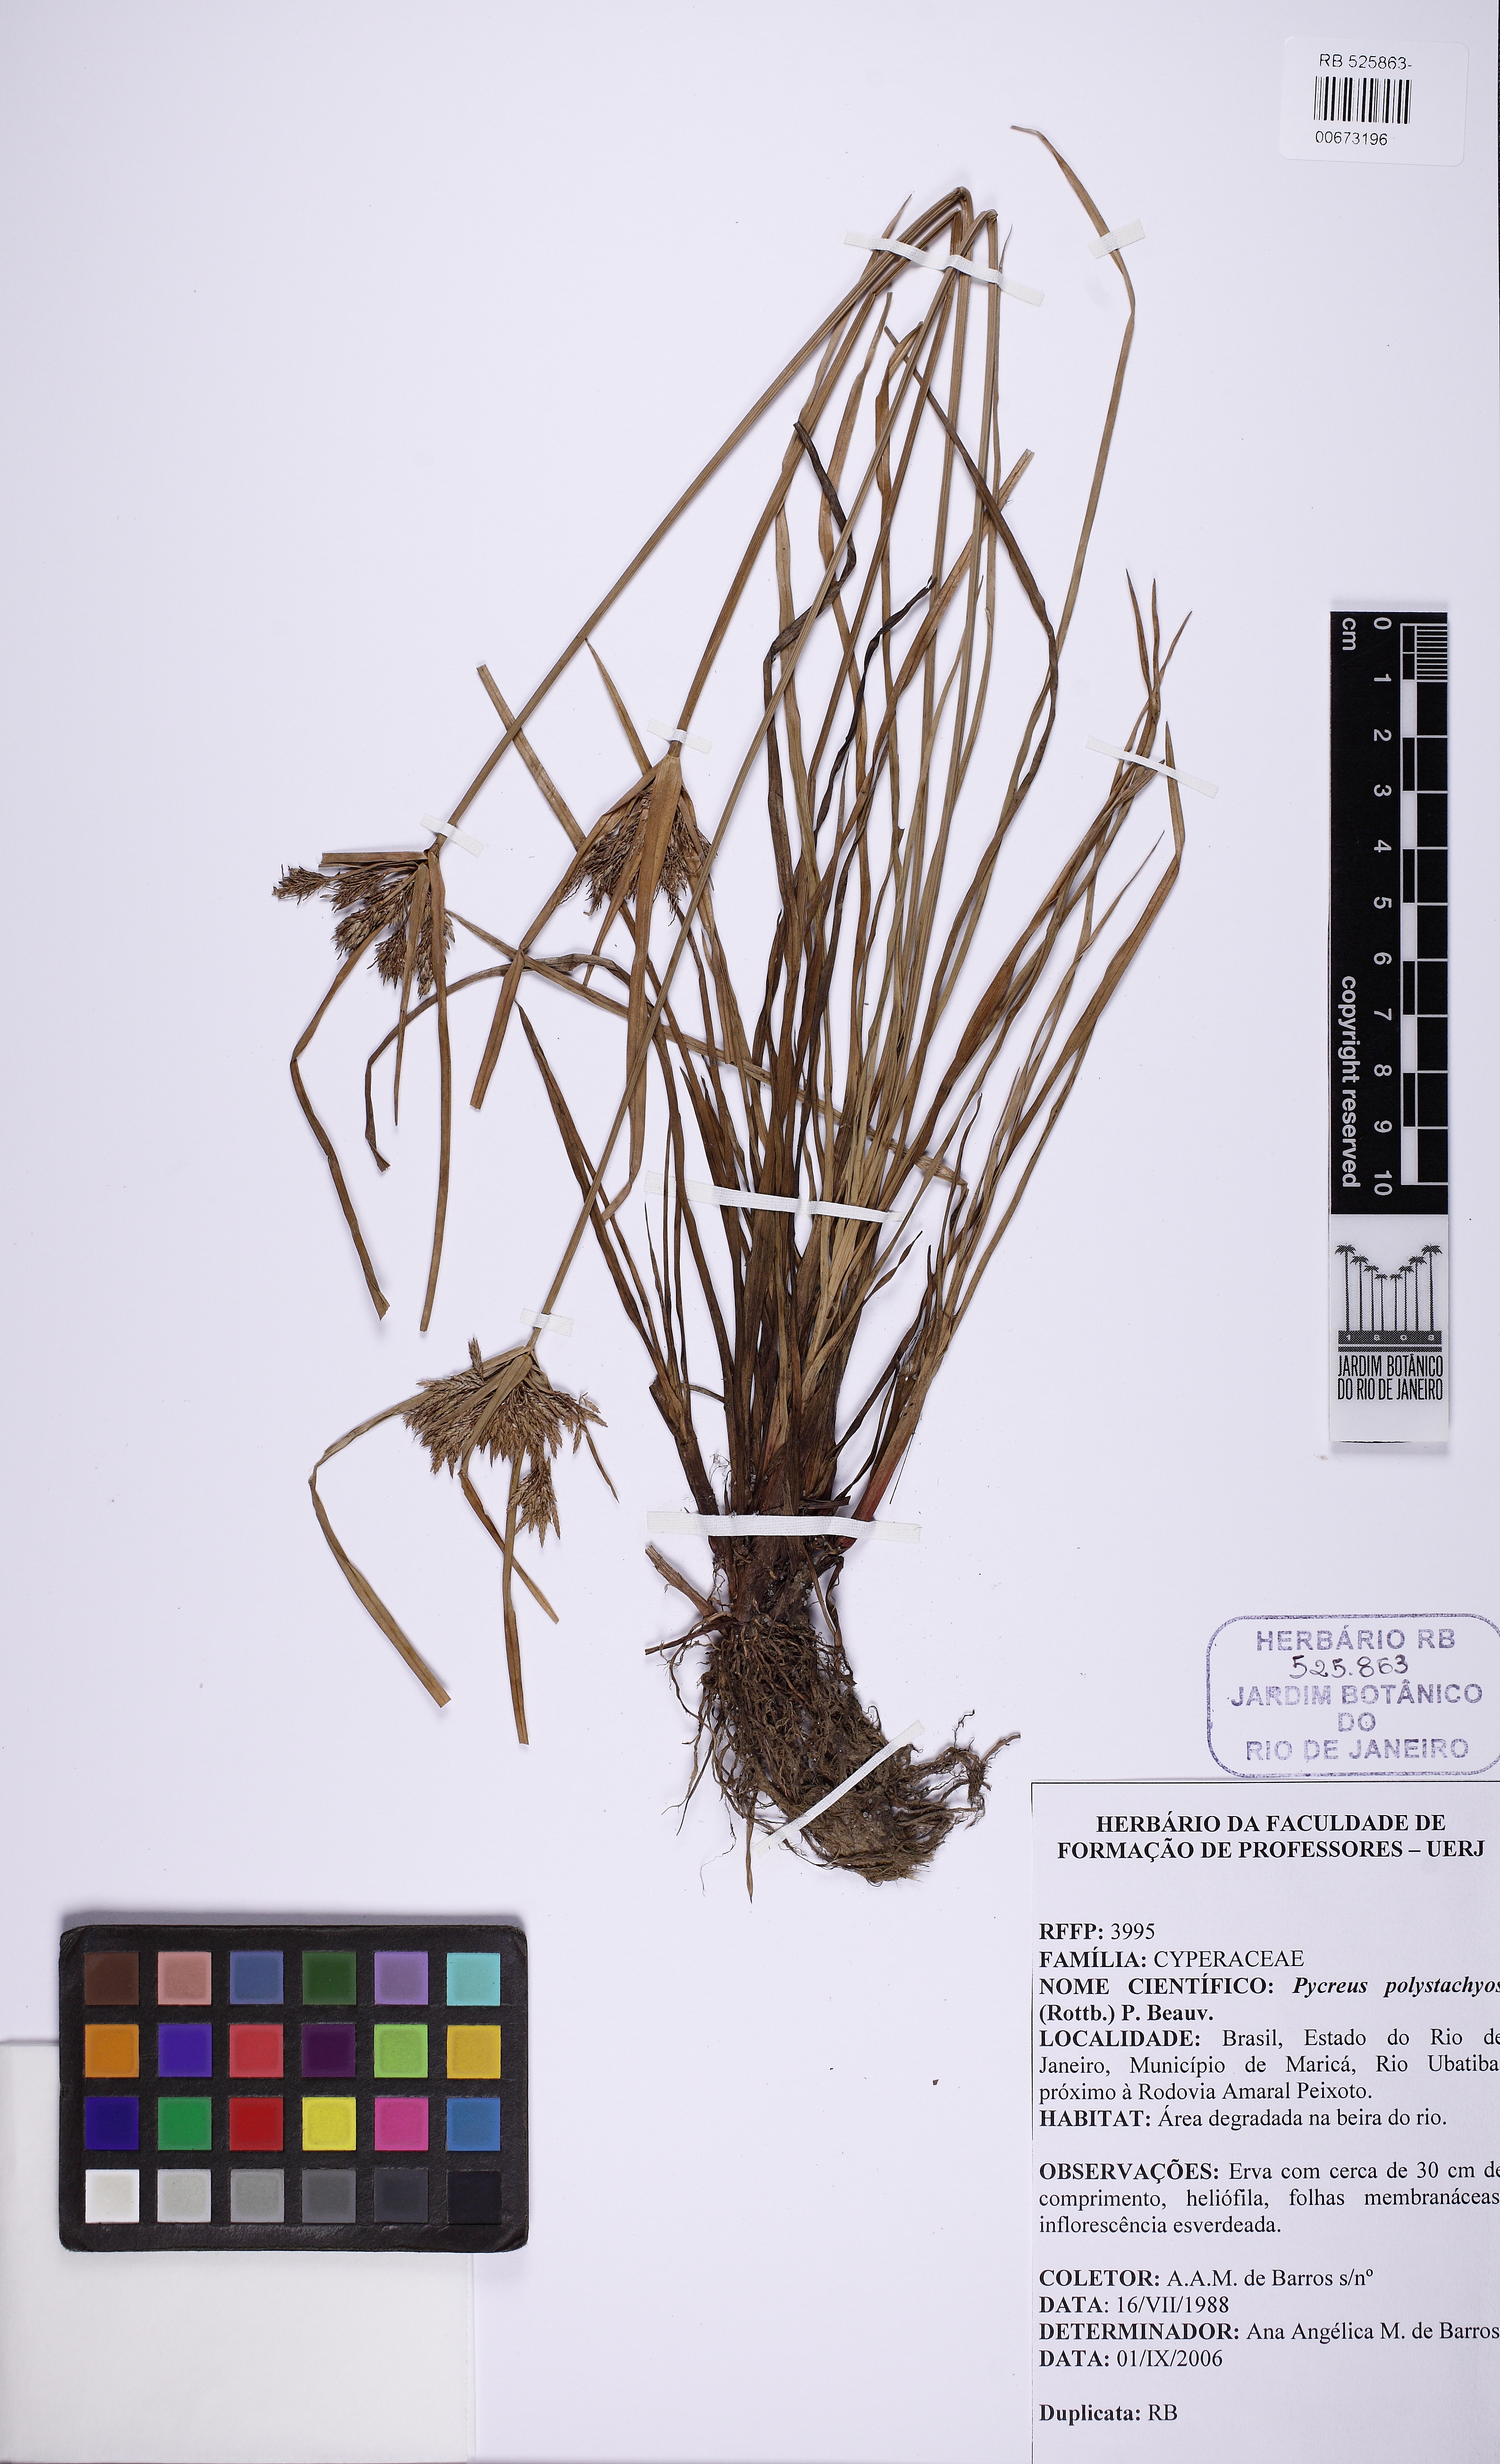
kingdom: Plantae
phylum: Tracheophyta
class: Liliopsida
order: Poales
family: Cyperaceae
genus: Cyperus
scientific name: Cyperus polystachyos
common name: Bunchy flat sedge
